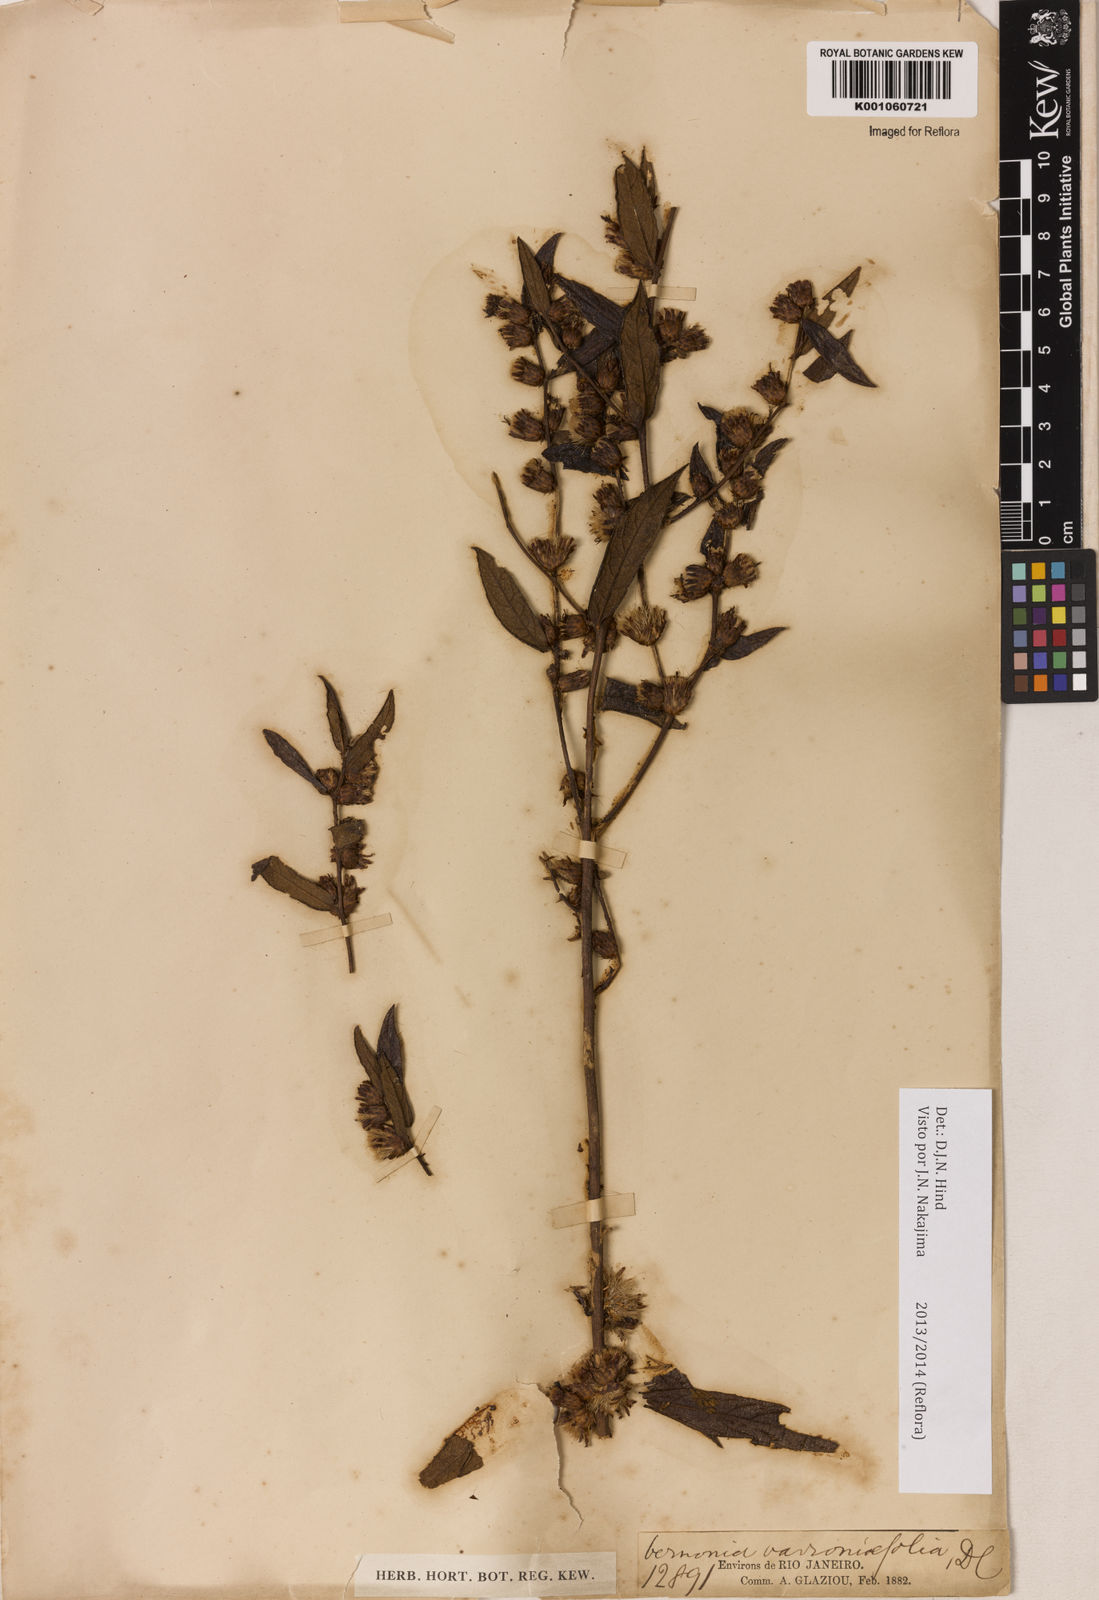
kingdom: Plantae
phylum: Tracheophyta
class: Magnoliopsida
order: Asterales
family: Asteraceae
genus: Lessingianthus
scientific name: Lessingianthus varroniifolius
